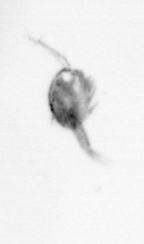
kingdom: Animalia
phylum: Arthropoda
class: Copepoda
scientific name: Copepoda
